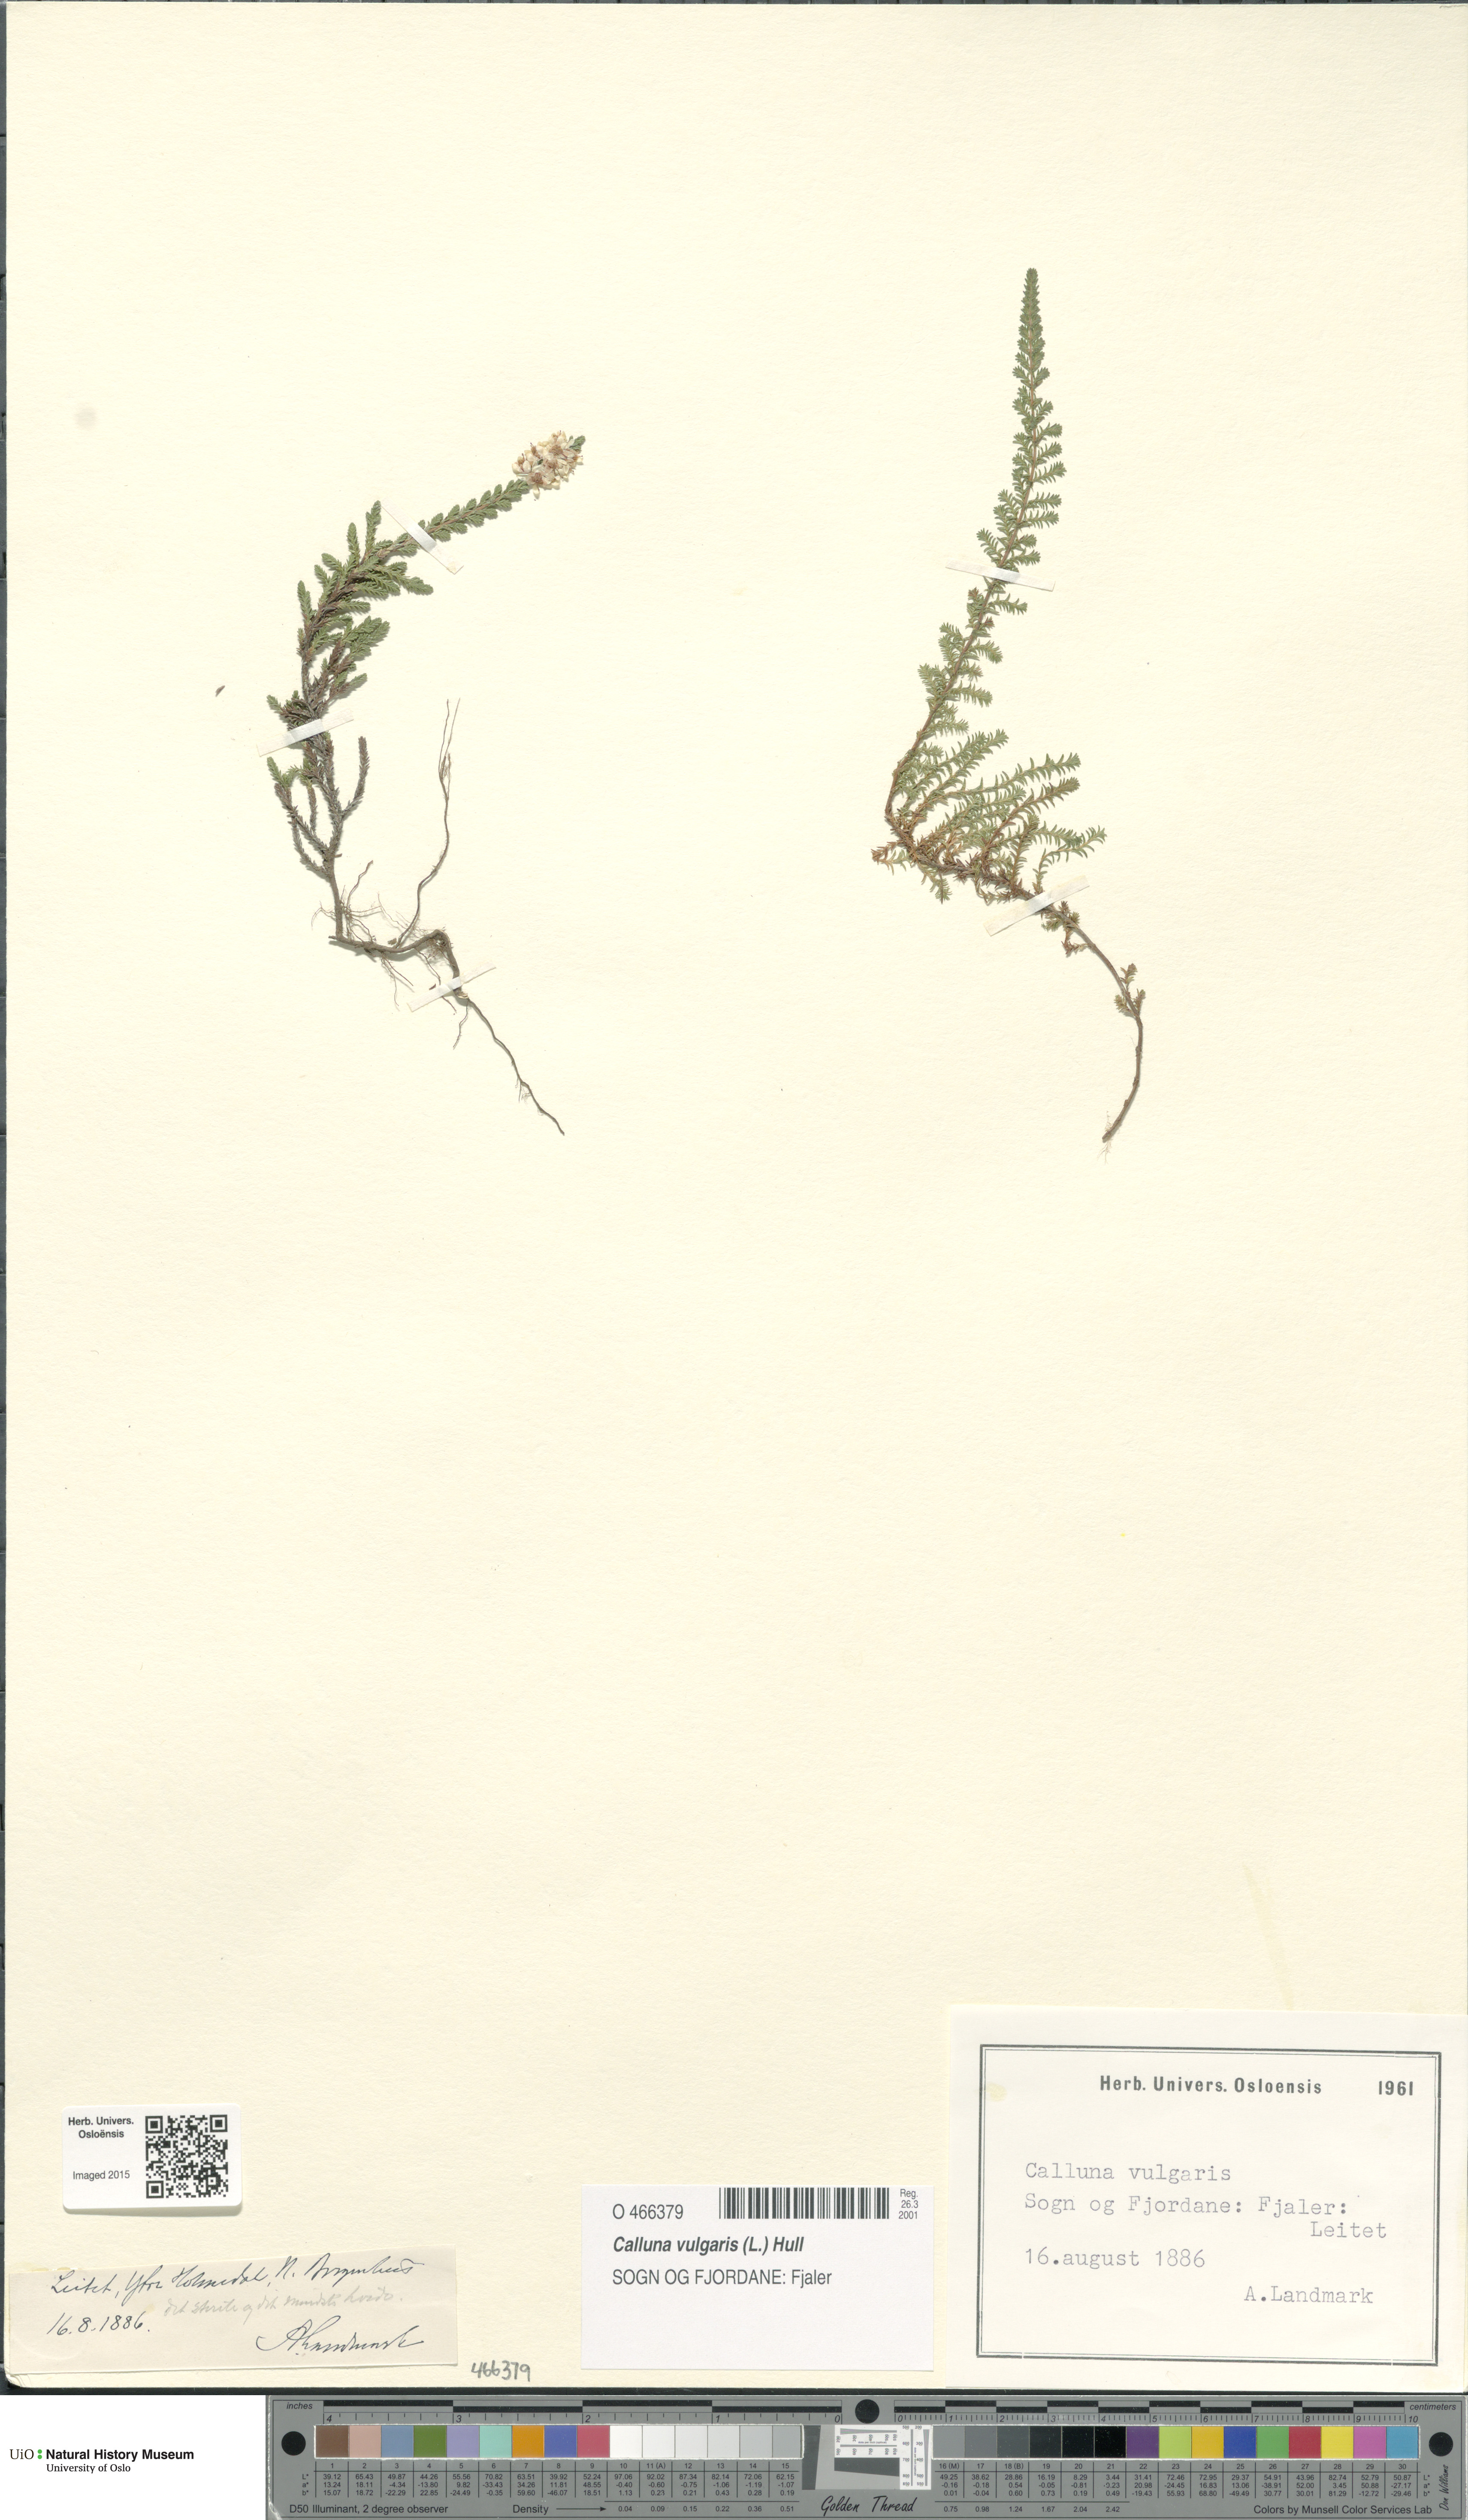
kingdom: Plantae
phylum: Tracheophyta
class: Magnoliopsida
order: Ericales
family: Ericaceae
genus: Calluna
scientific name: Calluna vulgaris
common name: Heather
